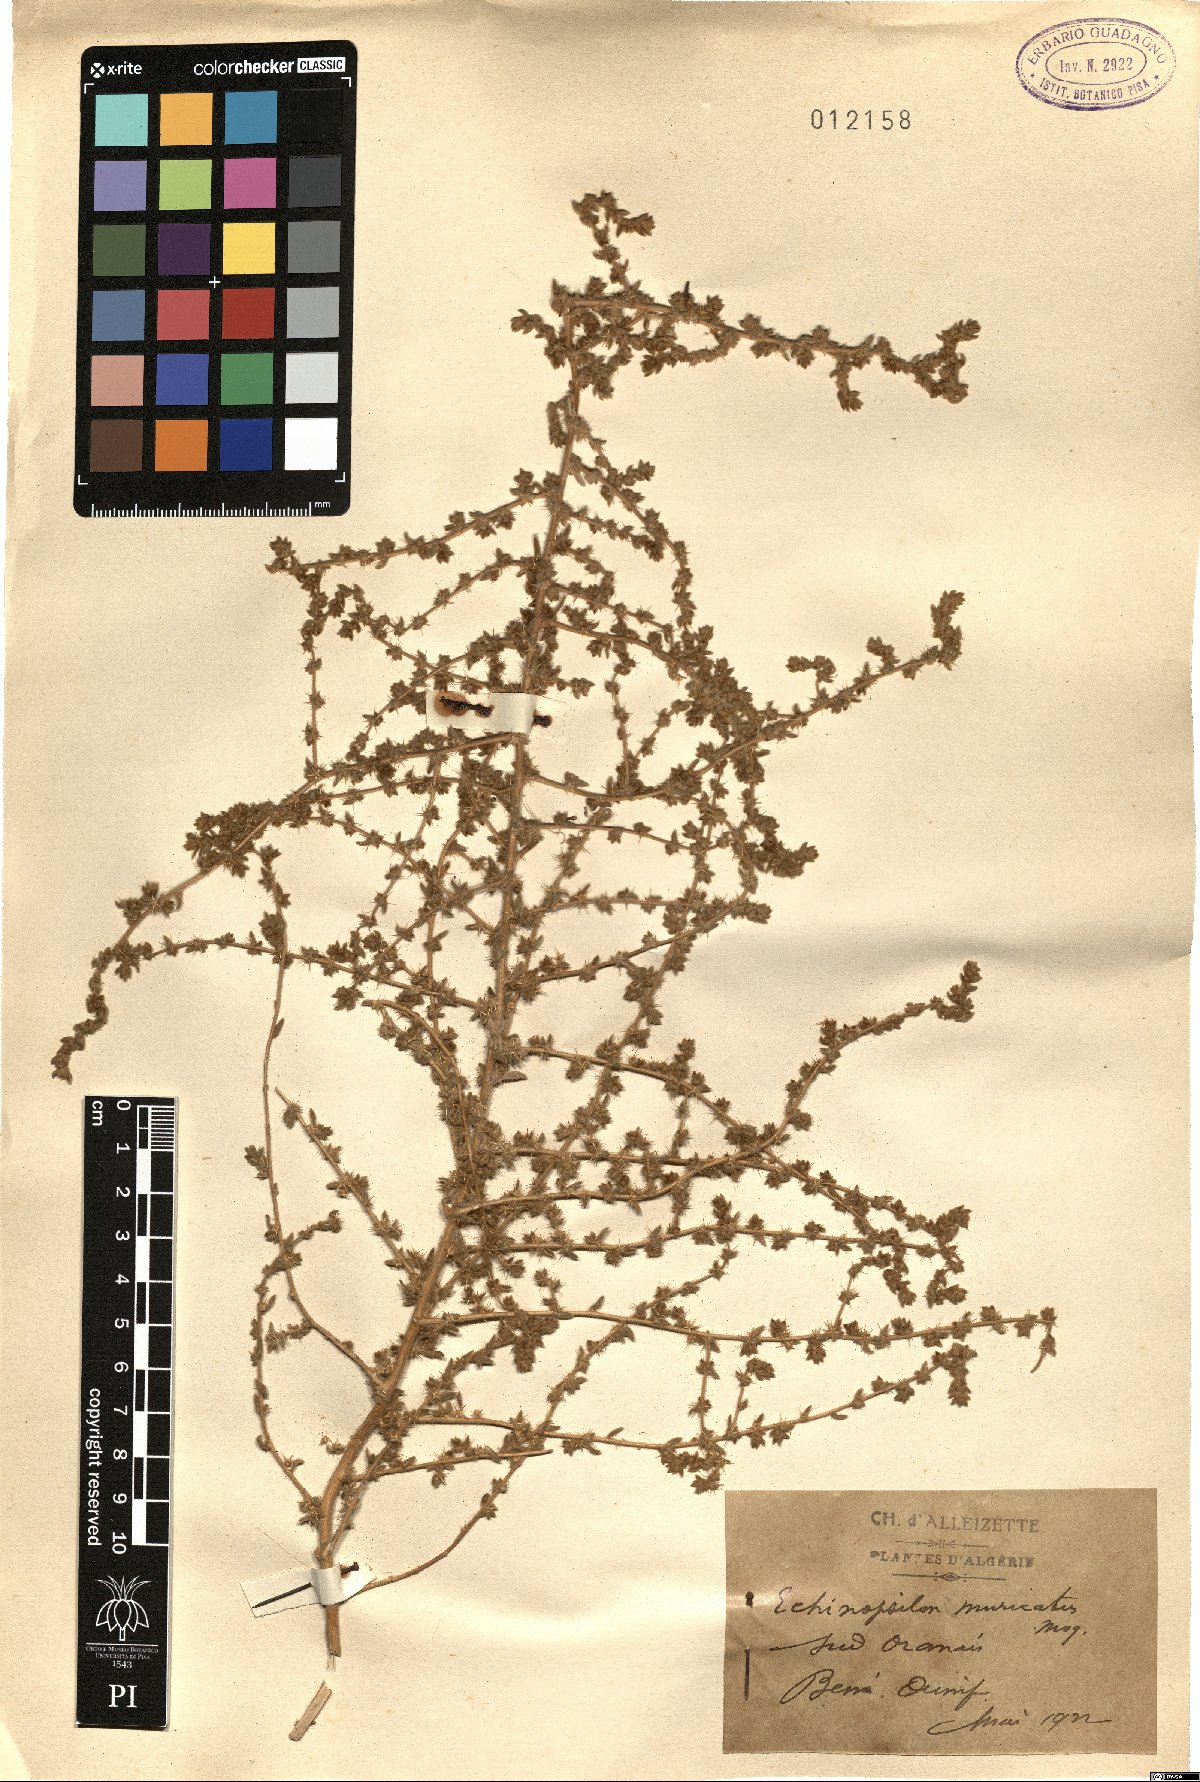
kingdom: Plantae
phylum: Tracheophyta
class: Magnoliopsida
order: Caryophyllales
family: Amaranthaceae
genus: Bassia
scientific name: Bassia muricata
